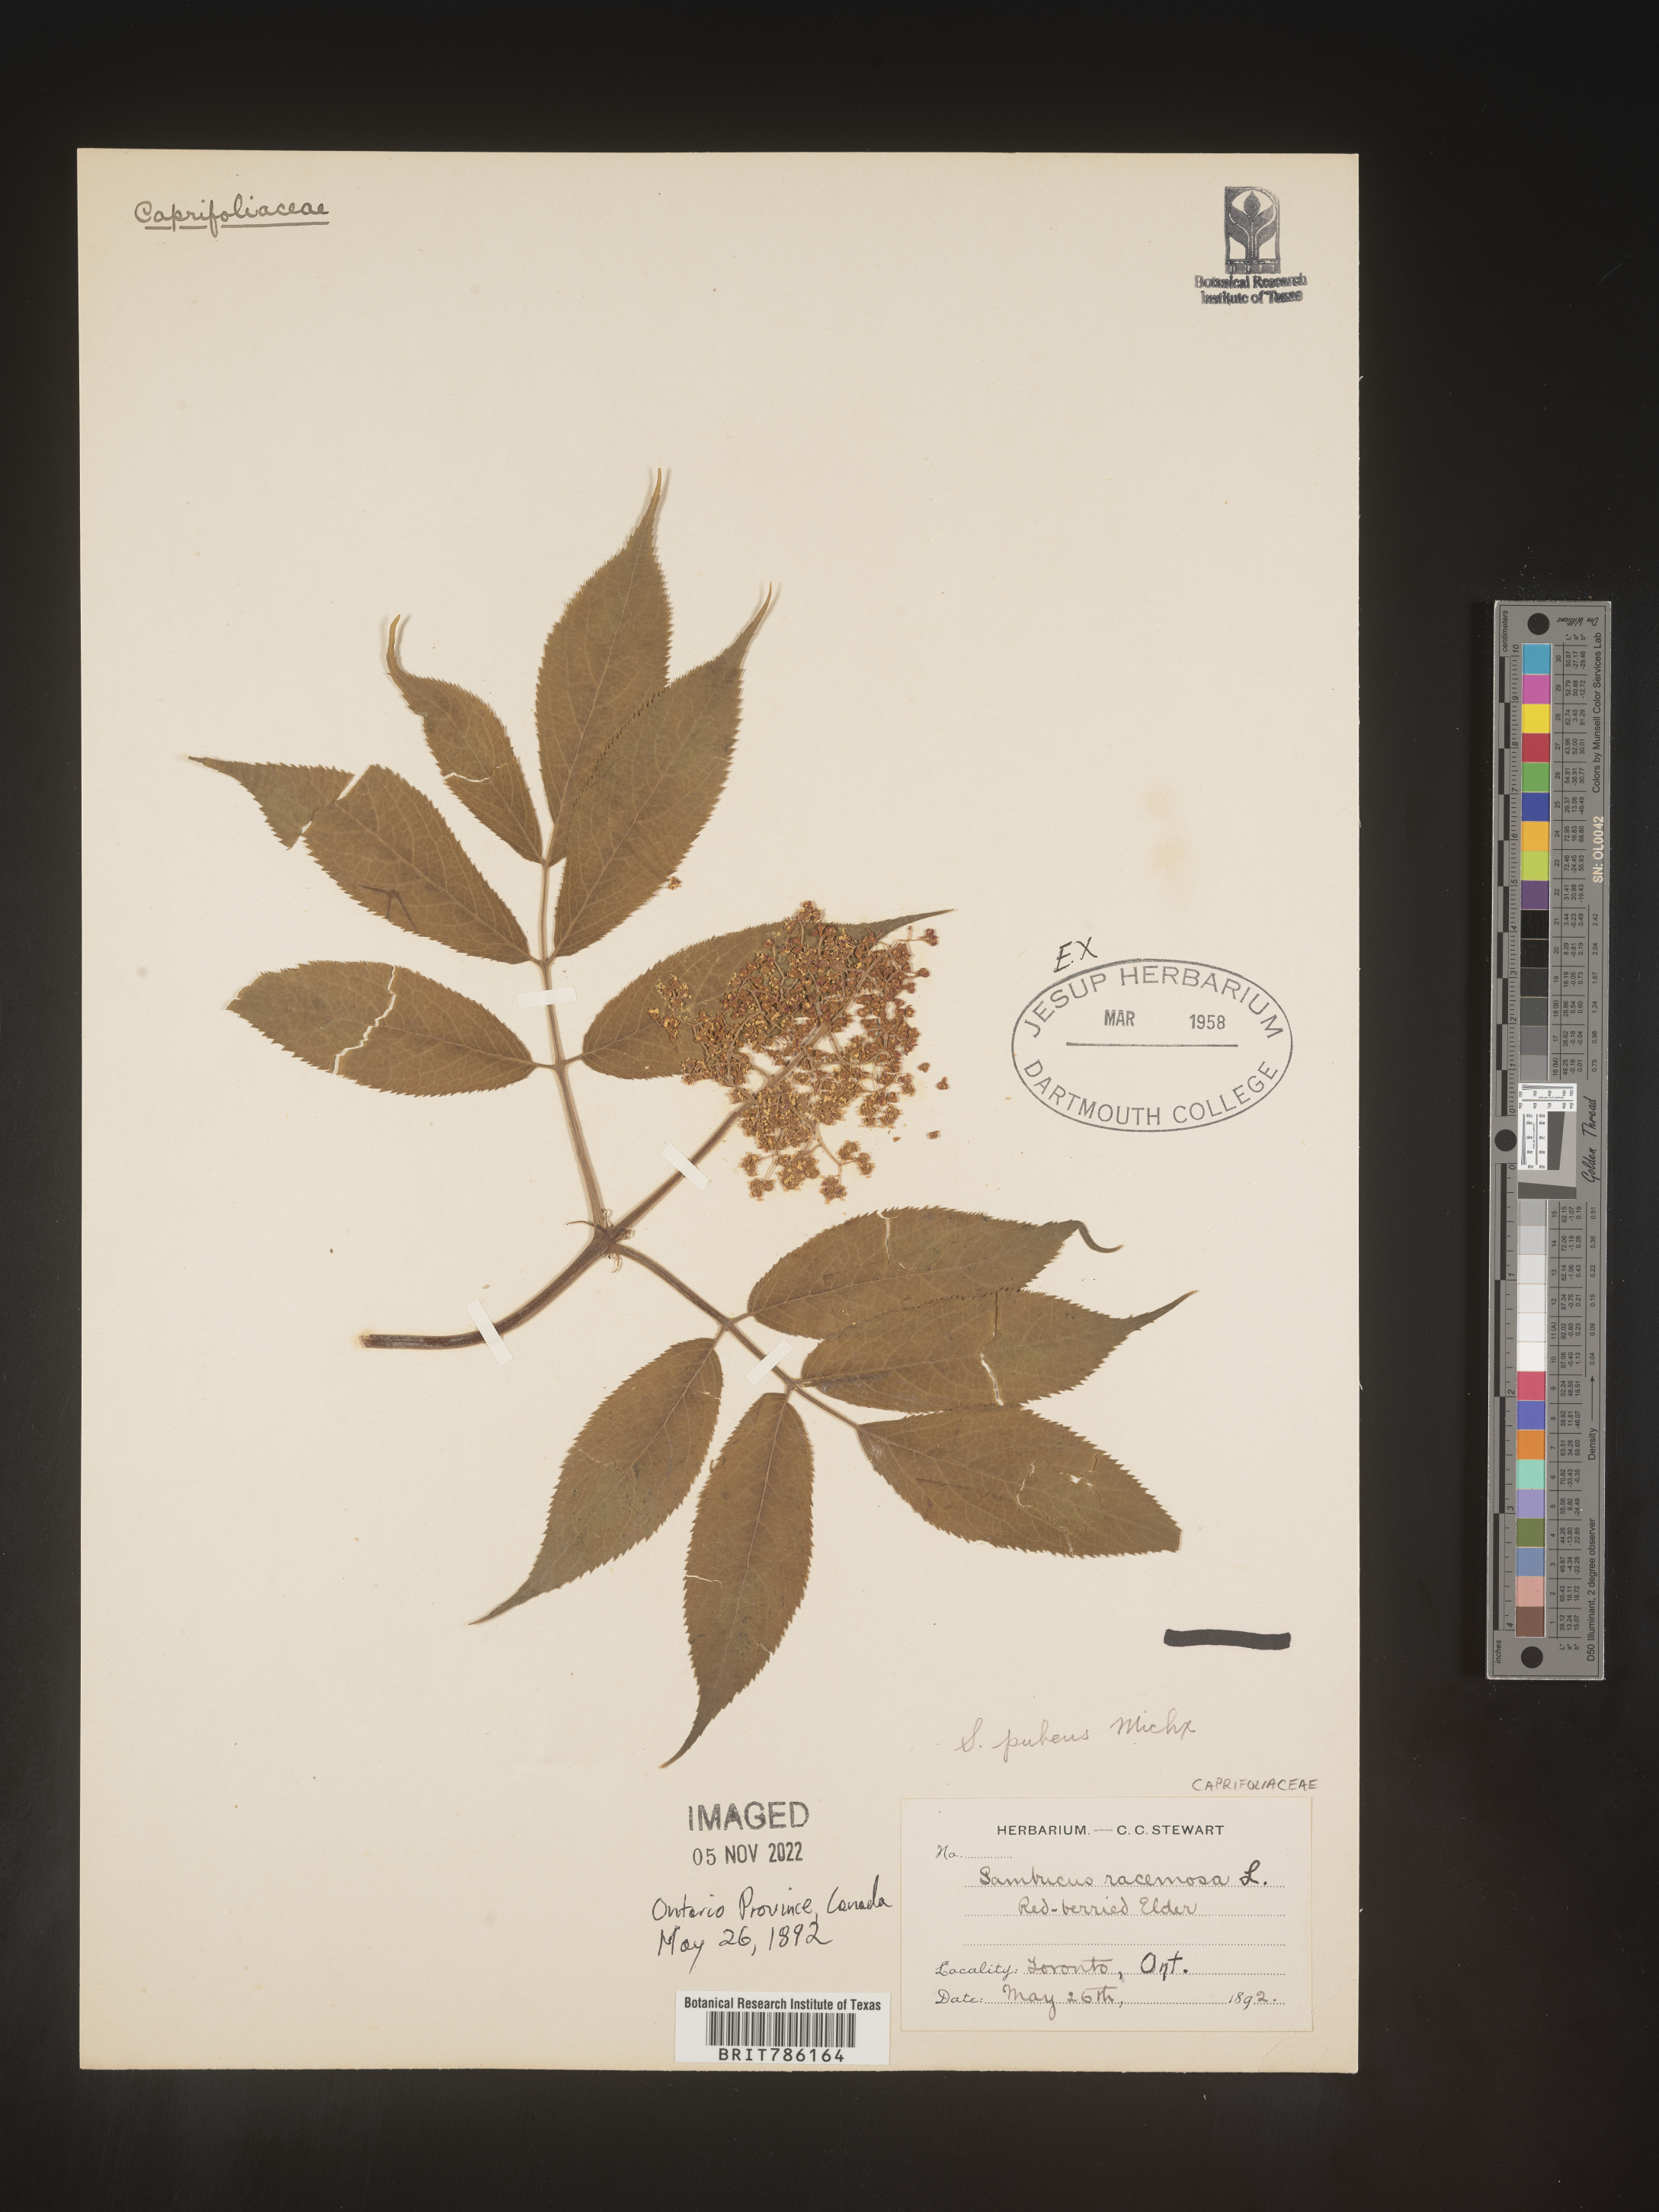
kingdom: Plantae
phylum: Tracheophyta
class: Magnoliopsida
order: Dipsacales
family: Viburnaceae
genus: Sambucus
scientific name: Sambucus
